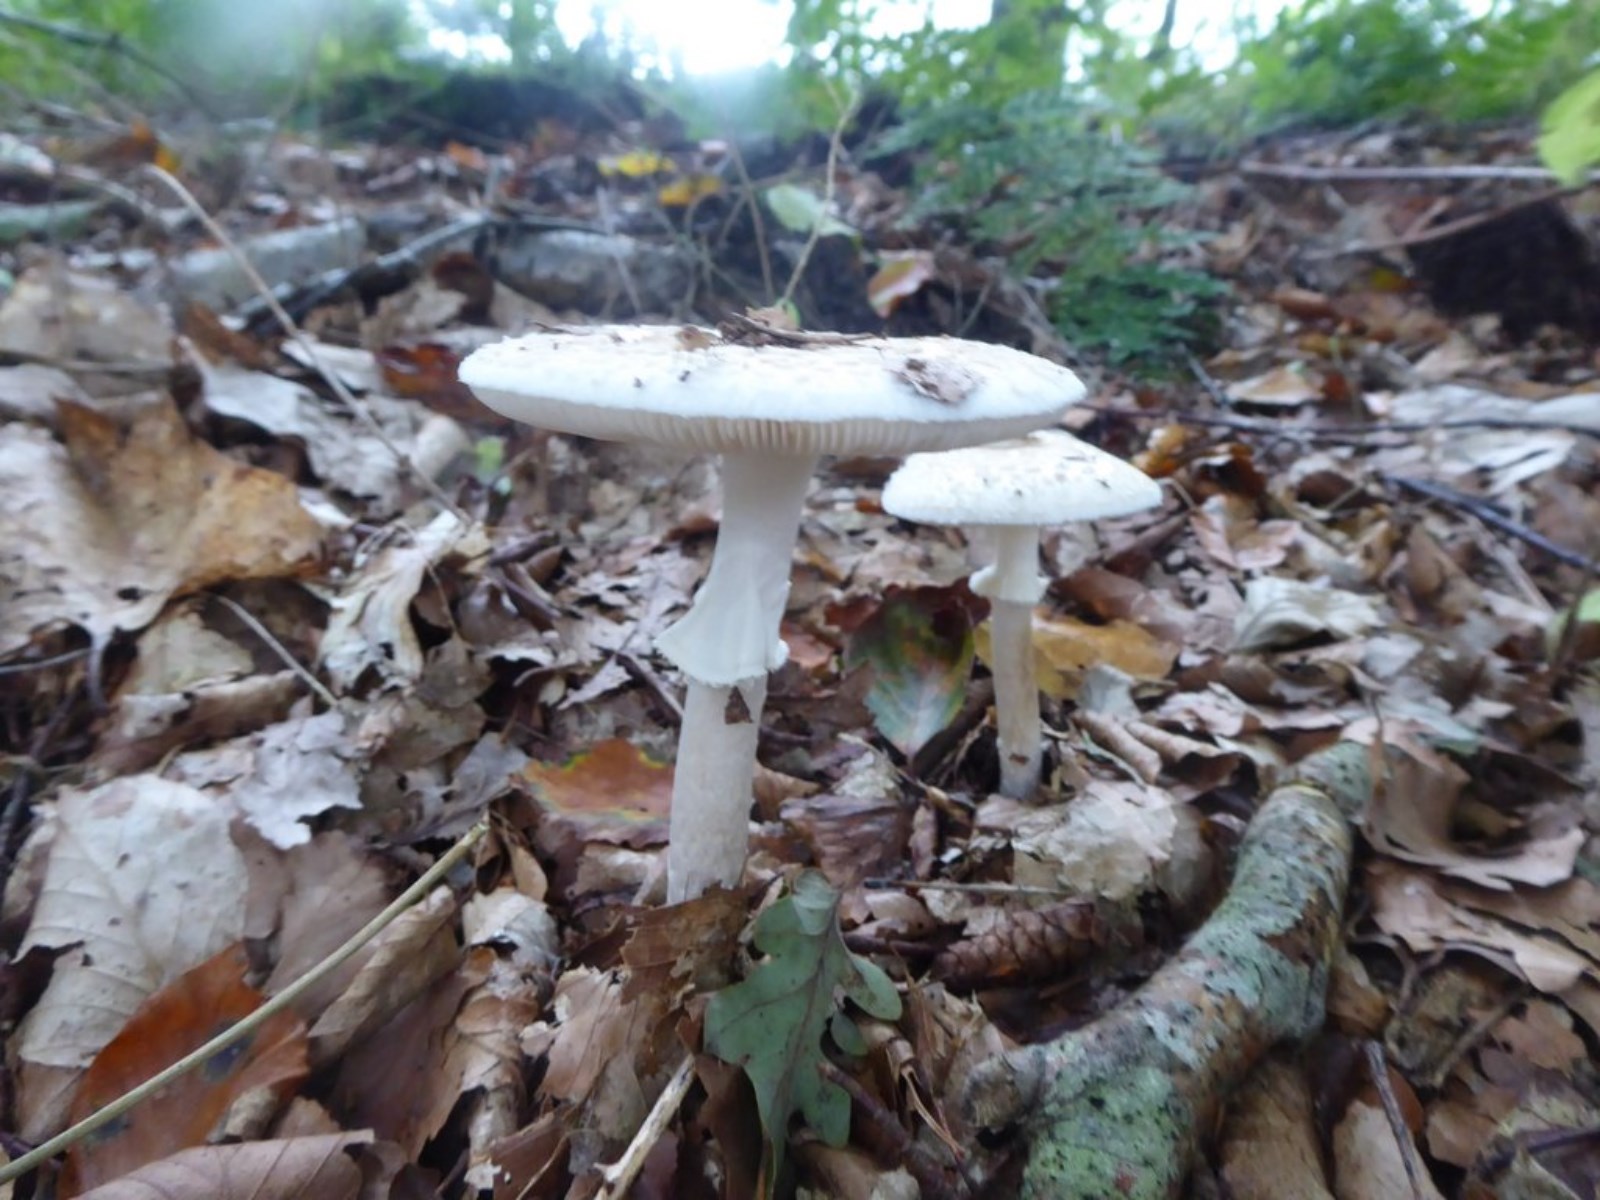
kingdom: Fungi
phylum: Basidiomycota
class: Agaricomycetes
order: Agaricales
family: Amanitaceae
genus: Amanita
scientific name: Amanita citrina
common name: False death-cap
